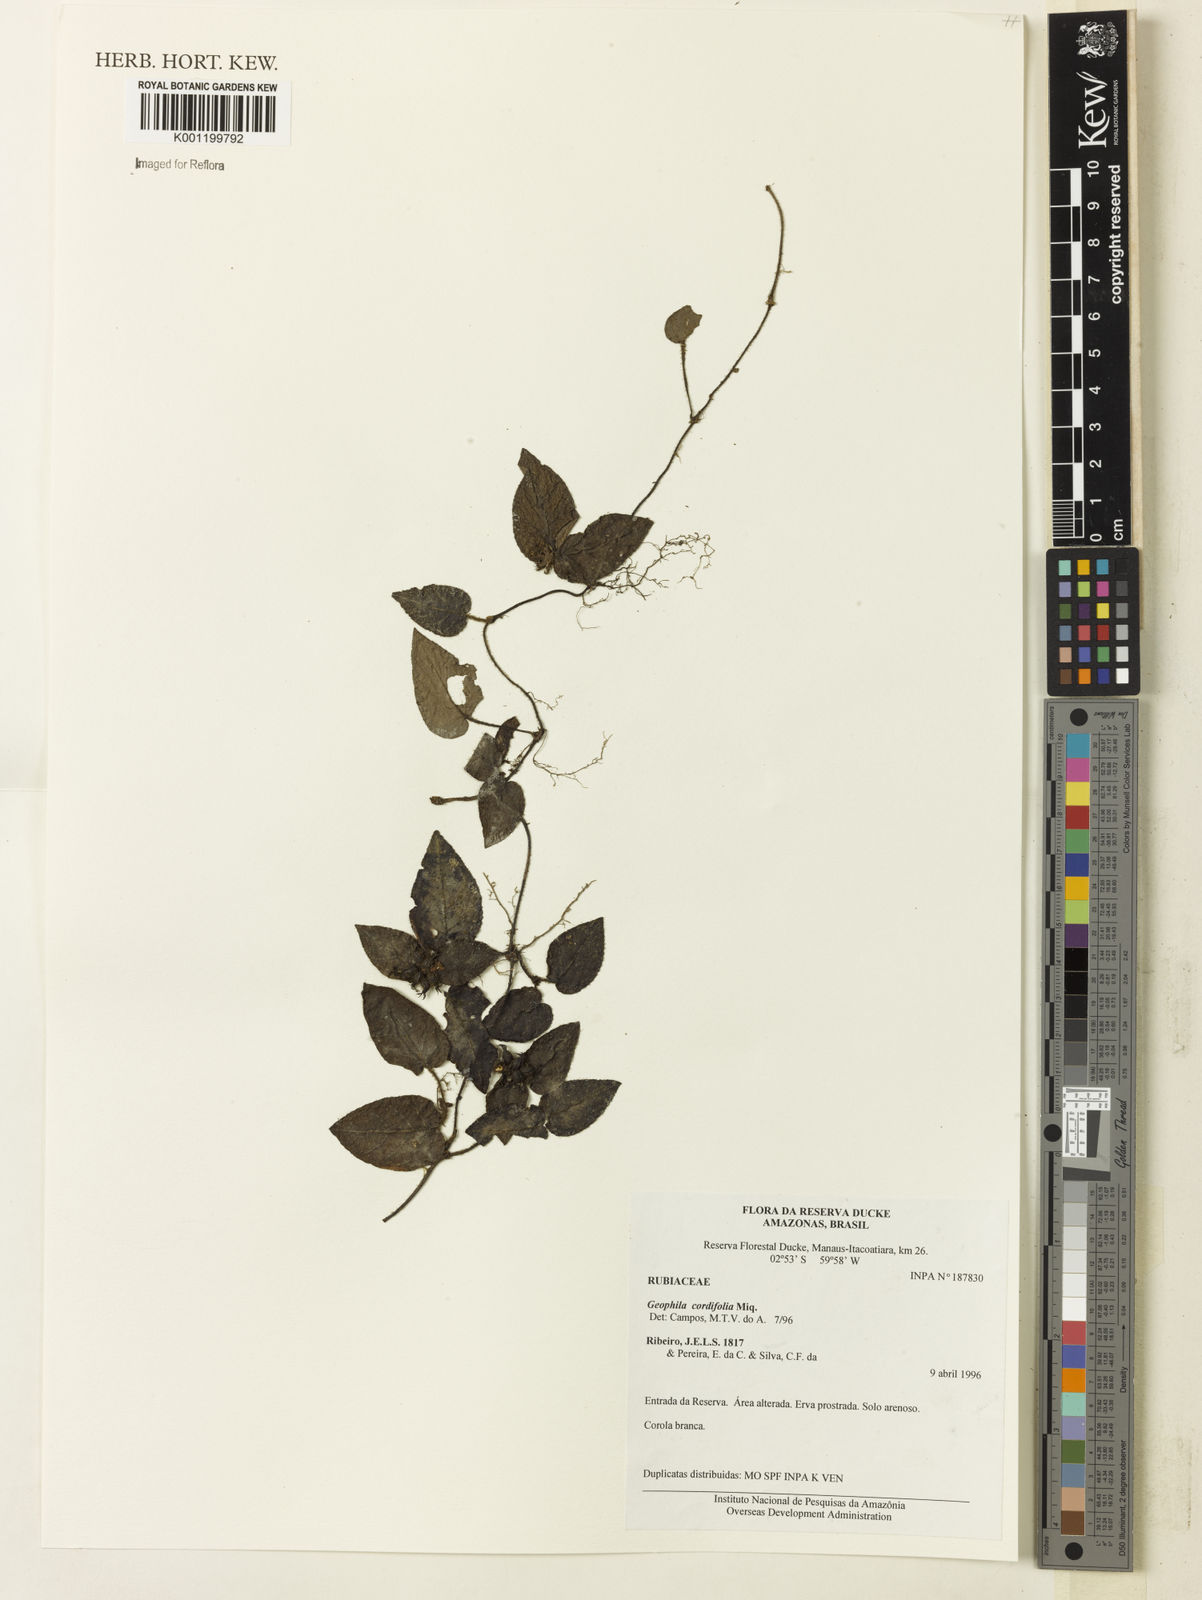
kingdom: Plantae
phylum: Tracheophyta
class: Magnoliopsida
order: Gentianales
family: Rubiaceae
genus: Geophila
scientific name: Geophila cordifolia
